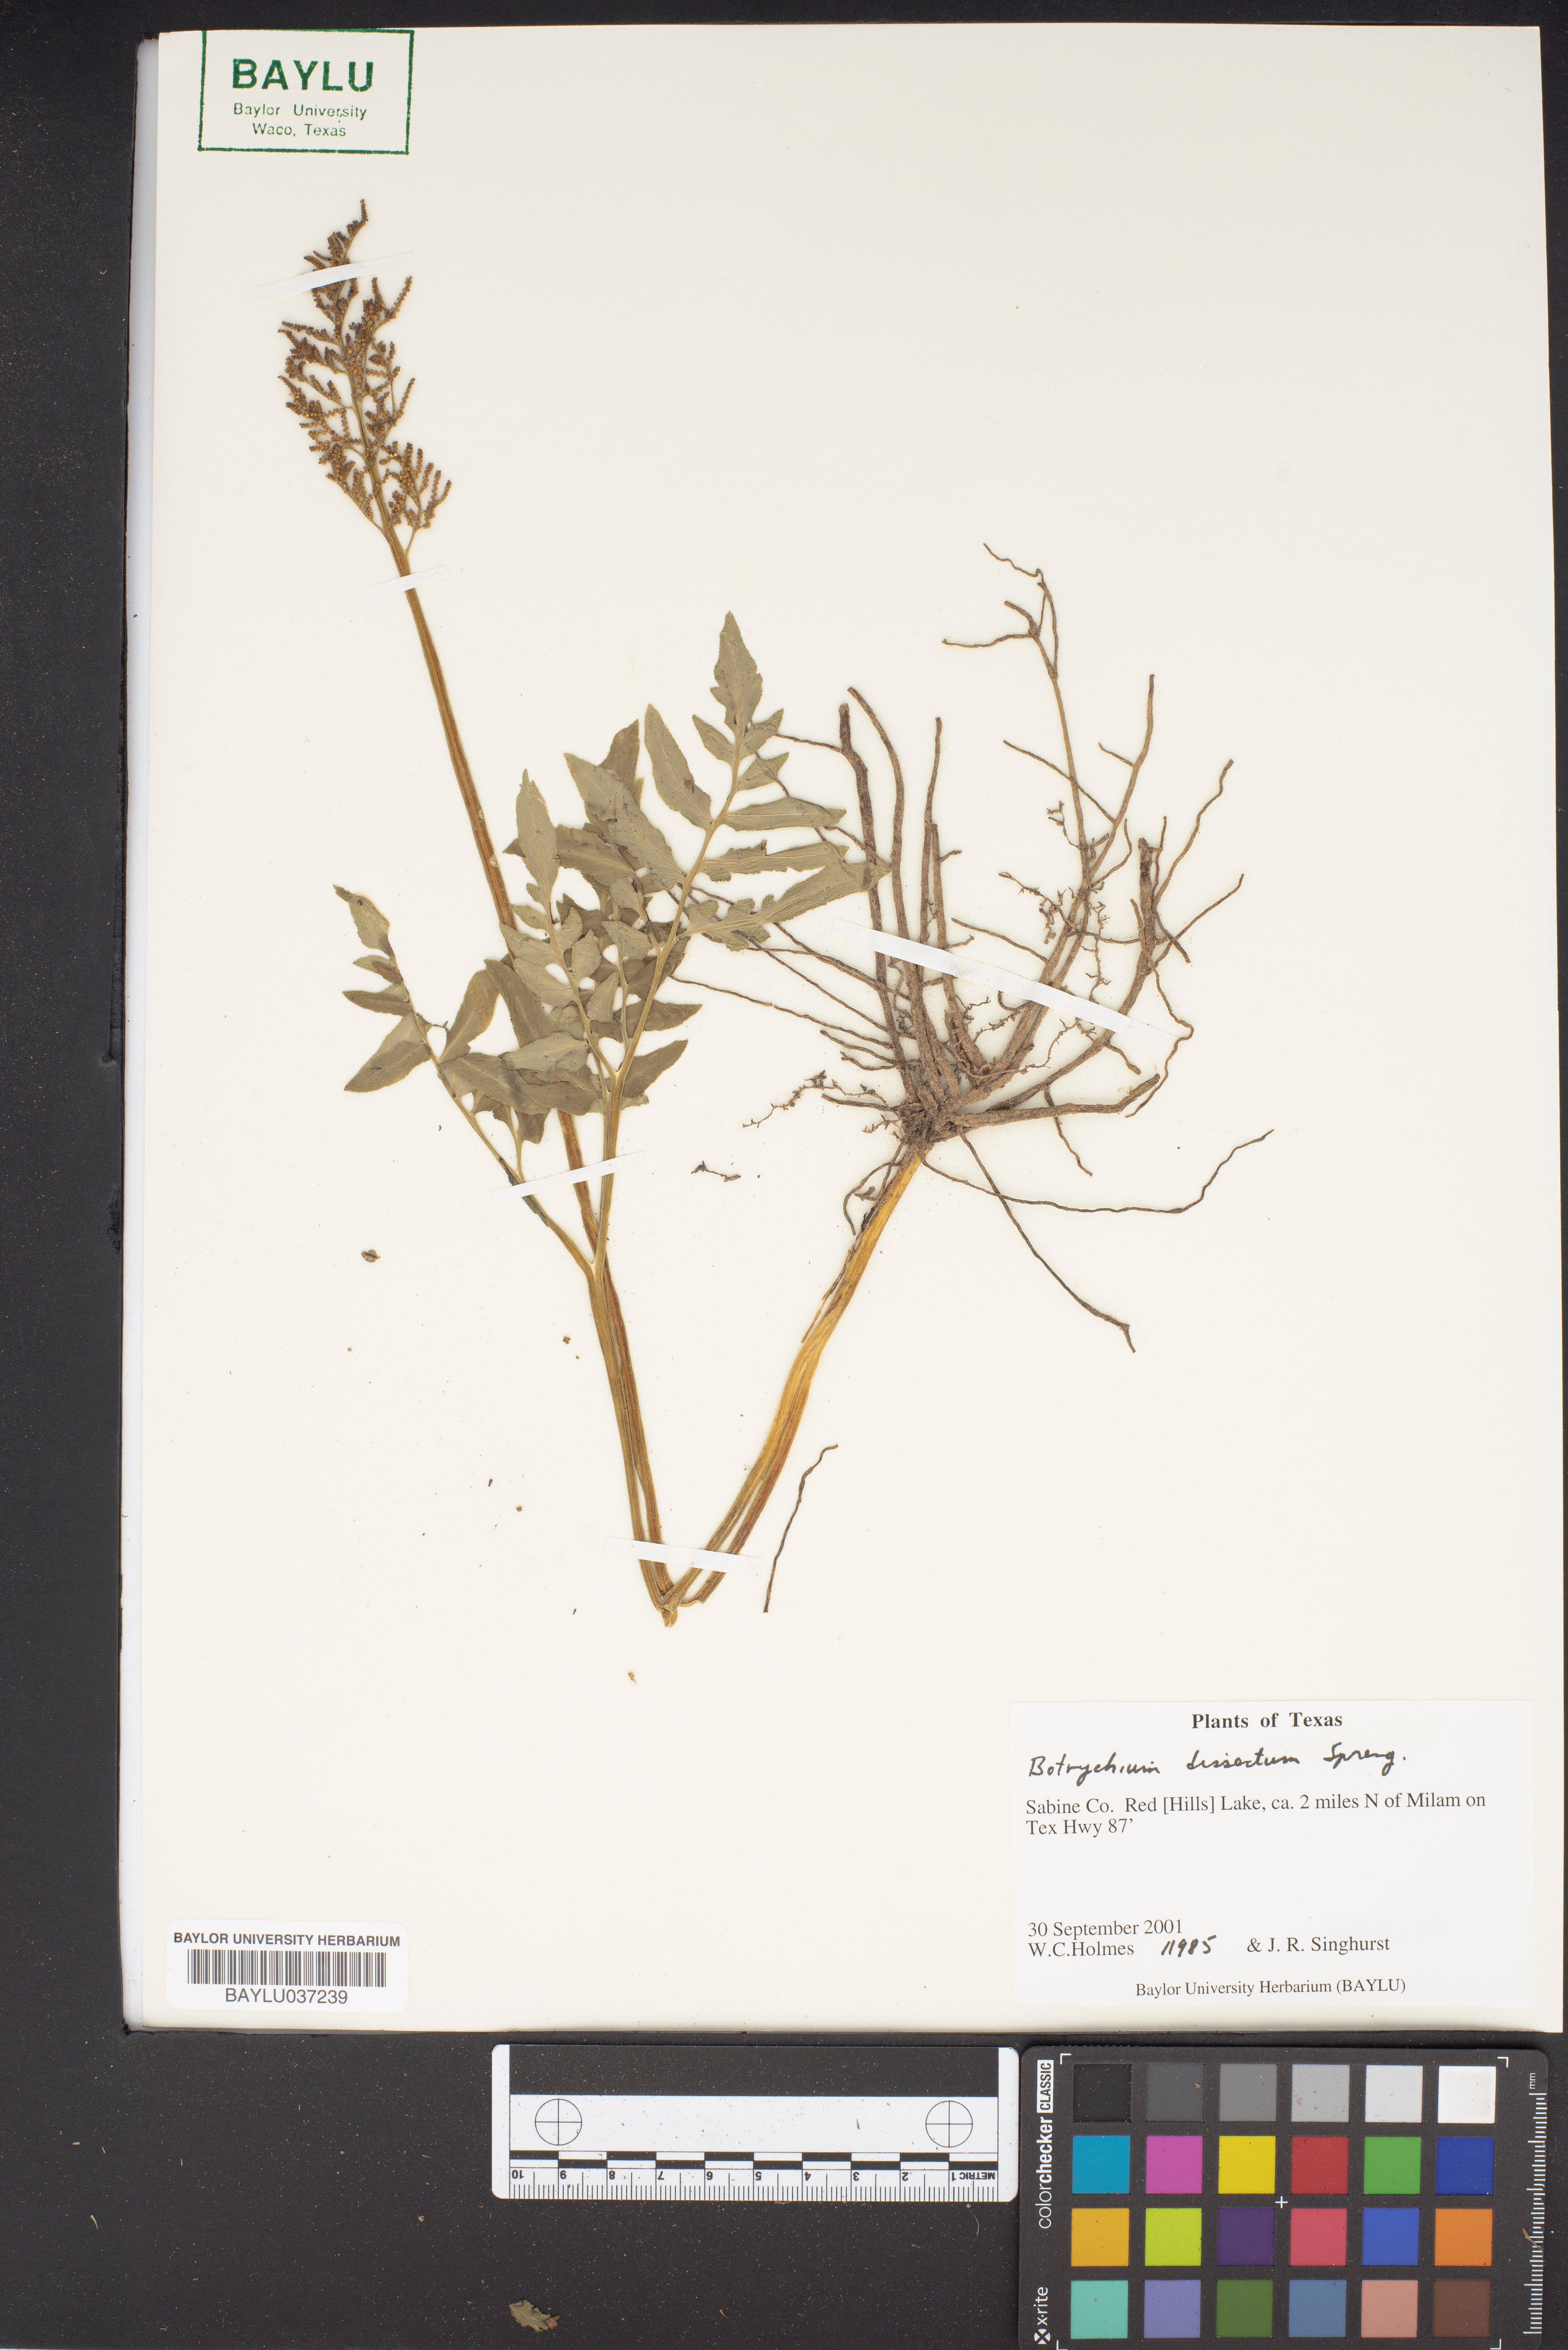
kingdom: Plantae
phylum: Tracheophyta
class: Polypodiopsida
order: Ophioglossales
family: Ophioglossaceae
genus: Sceptridium
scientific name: Sceptridium dissectum
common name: Cut-leaved grapefern
